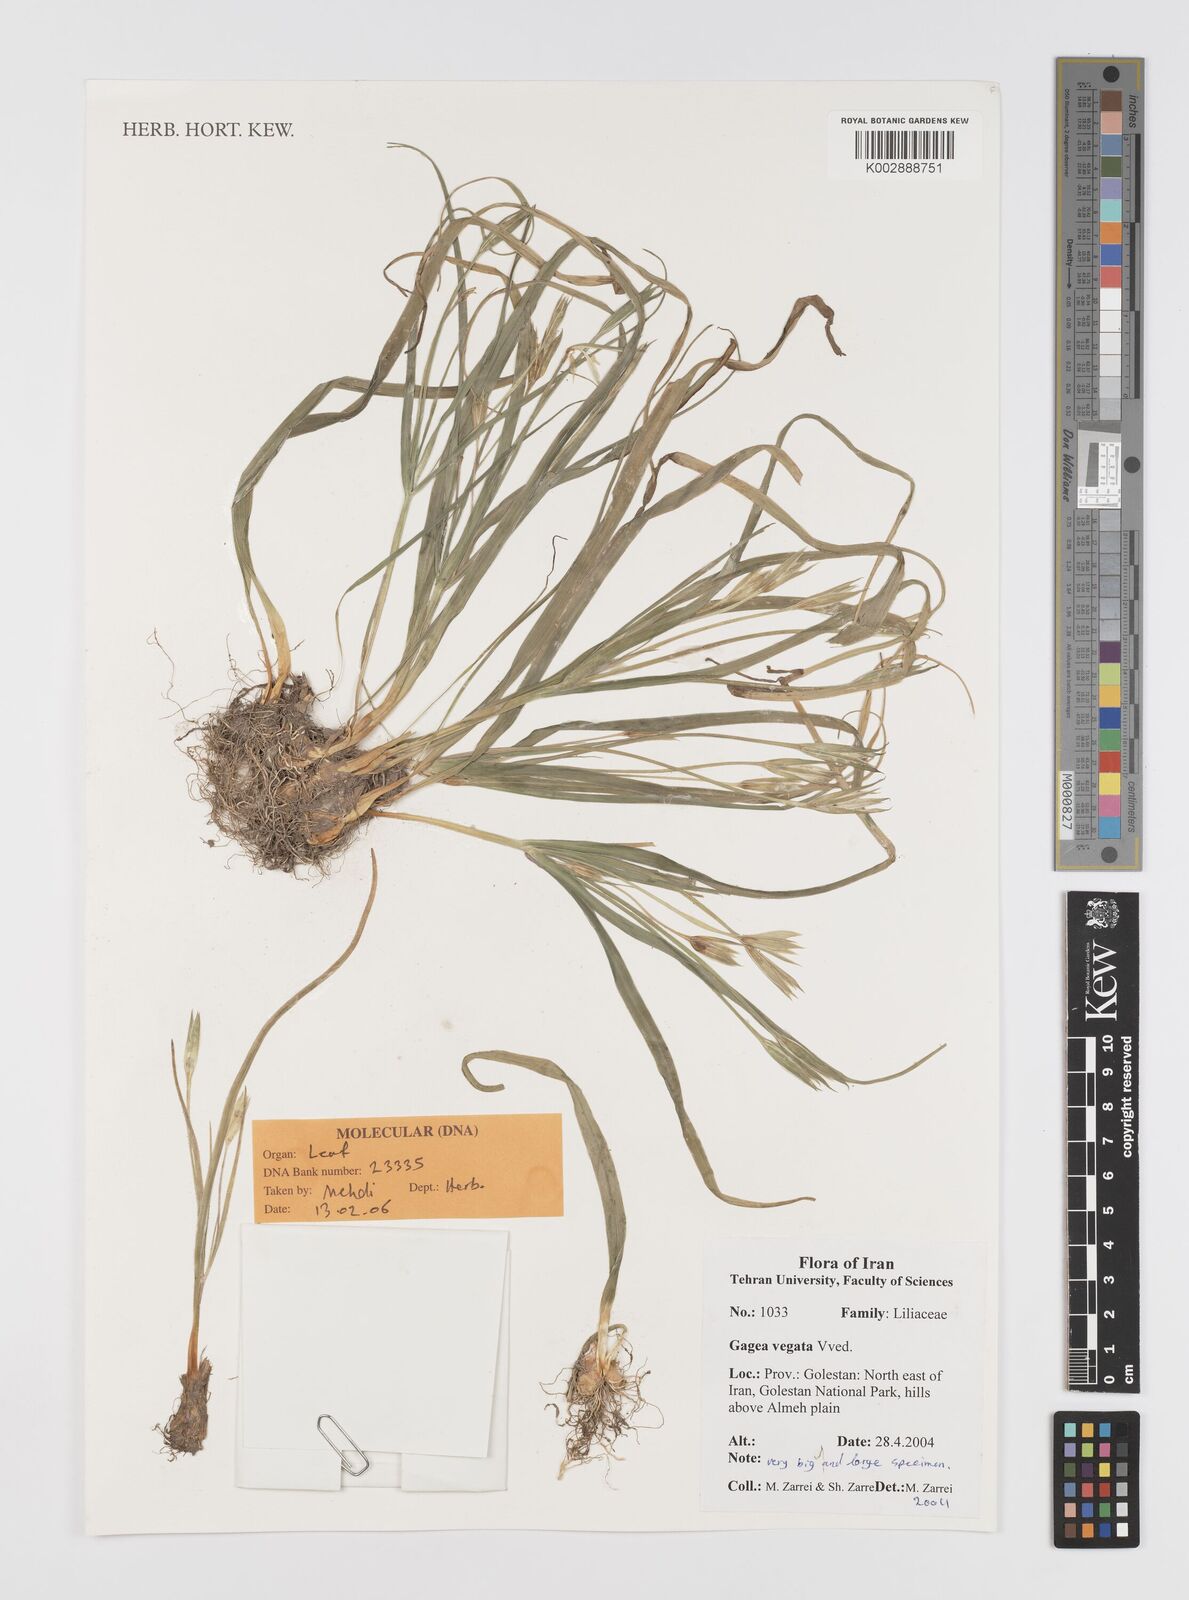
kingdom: Plantae
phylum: Tracheophyta
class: Liliopsida
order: Liliales
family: Liliaceae
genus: Gagea
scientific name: Gagea vegeta
